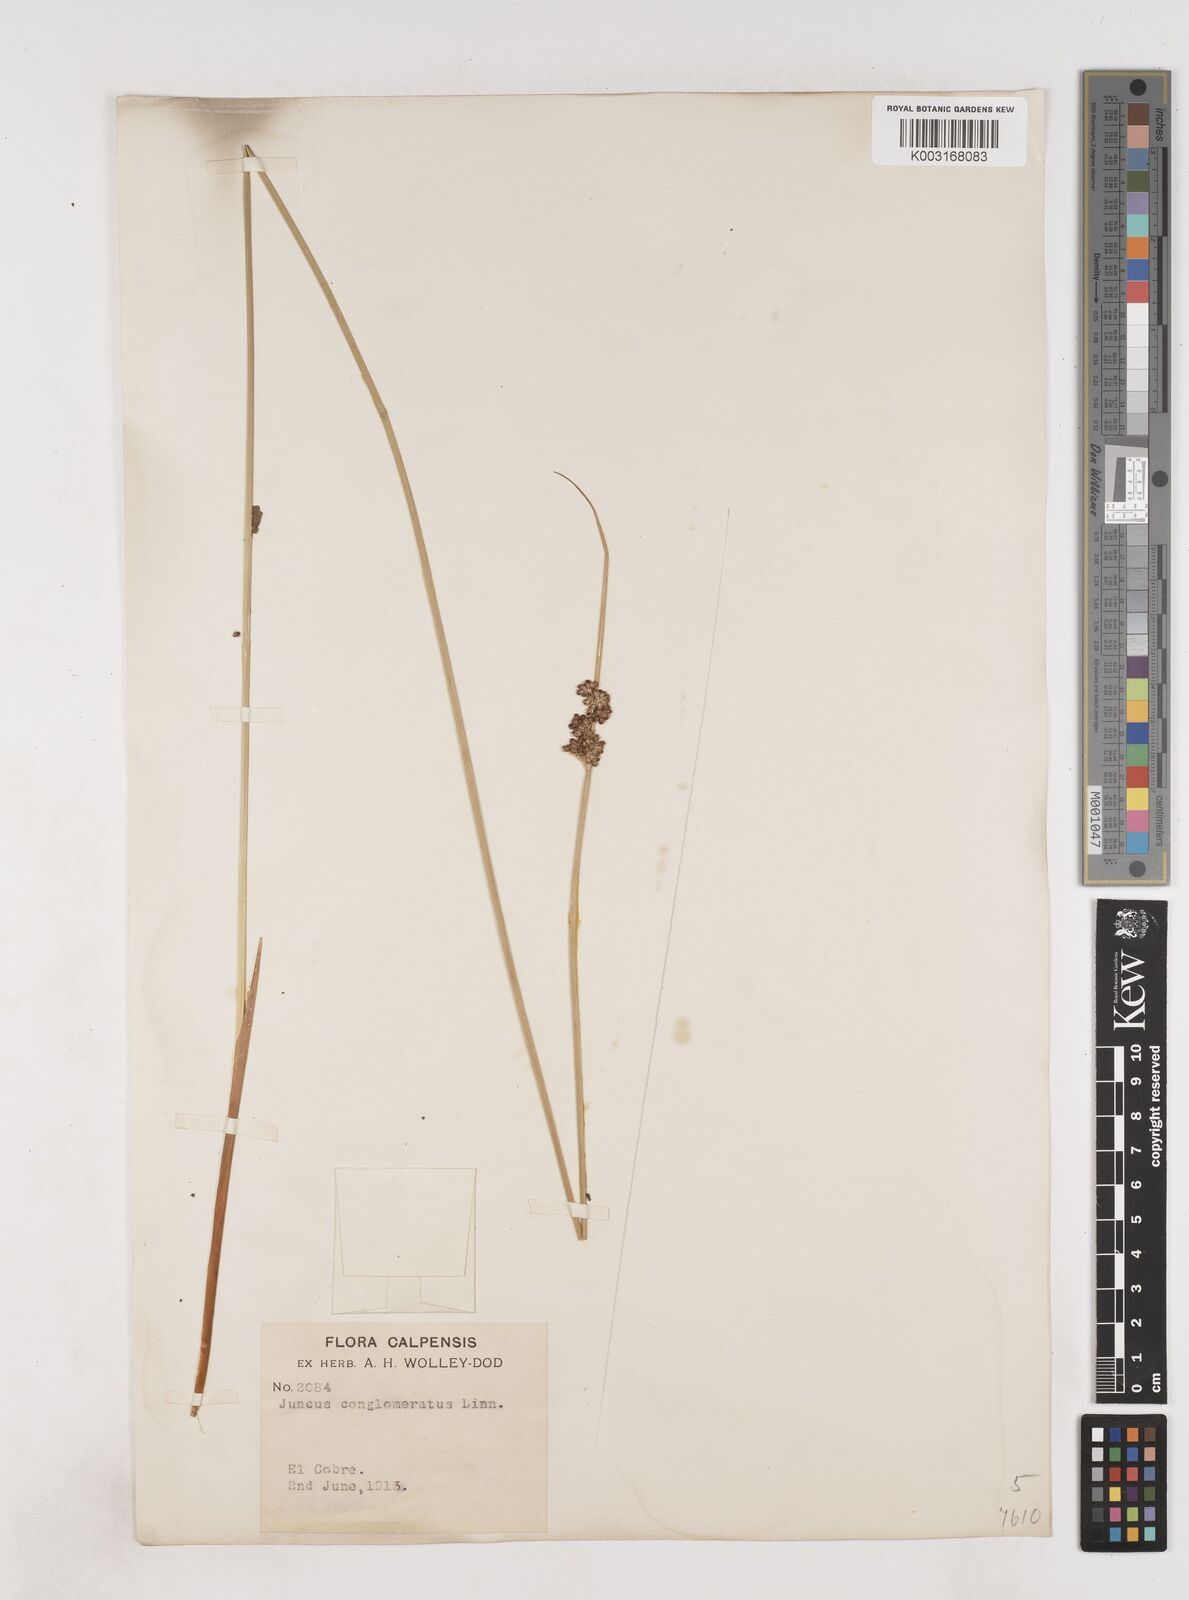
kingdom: Plantae
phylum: Tracheophyta
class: Liliopsida
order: Poales
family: Juncaceae
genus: Juncus
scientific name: Juncus conglomeratus
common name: Compact rush
